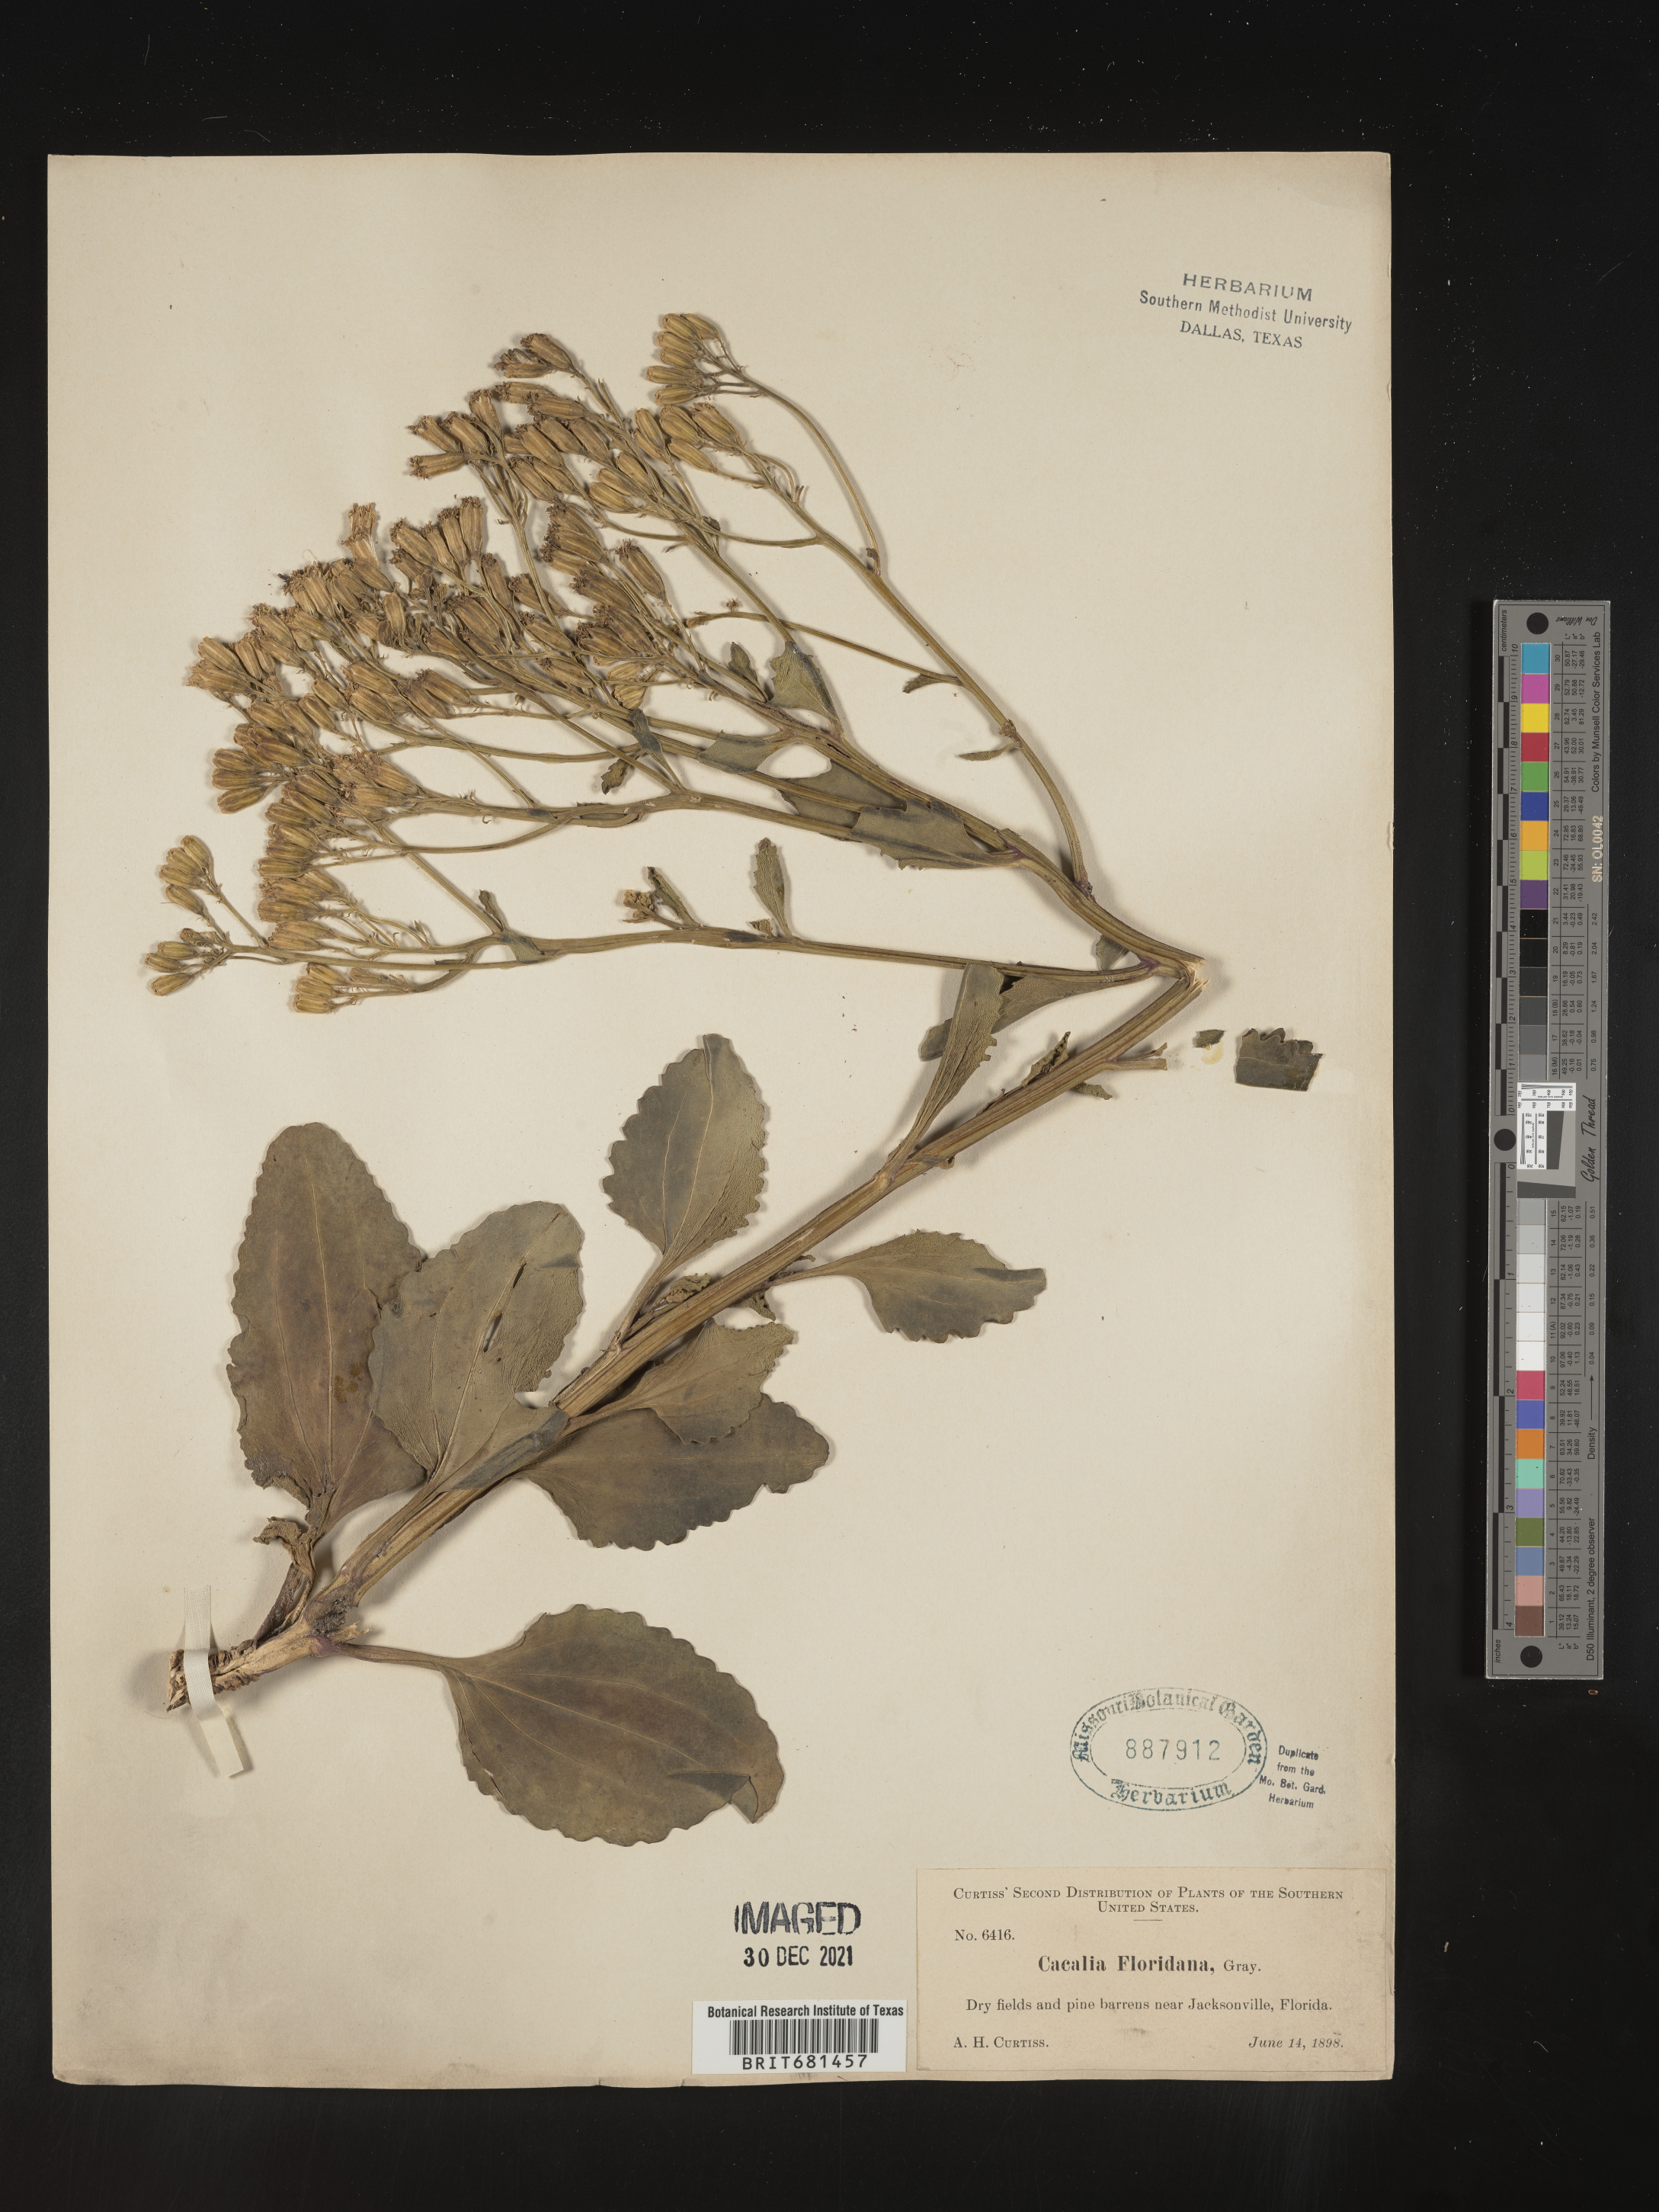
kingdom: Plantae
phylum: Tracheophyta
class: Magnoliopsida
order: Asterales
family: Asteraceae
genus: Arnoglossum
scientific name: Arnoglossum floridanum
